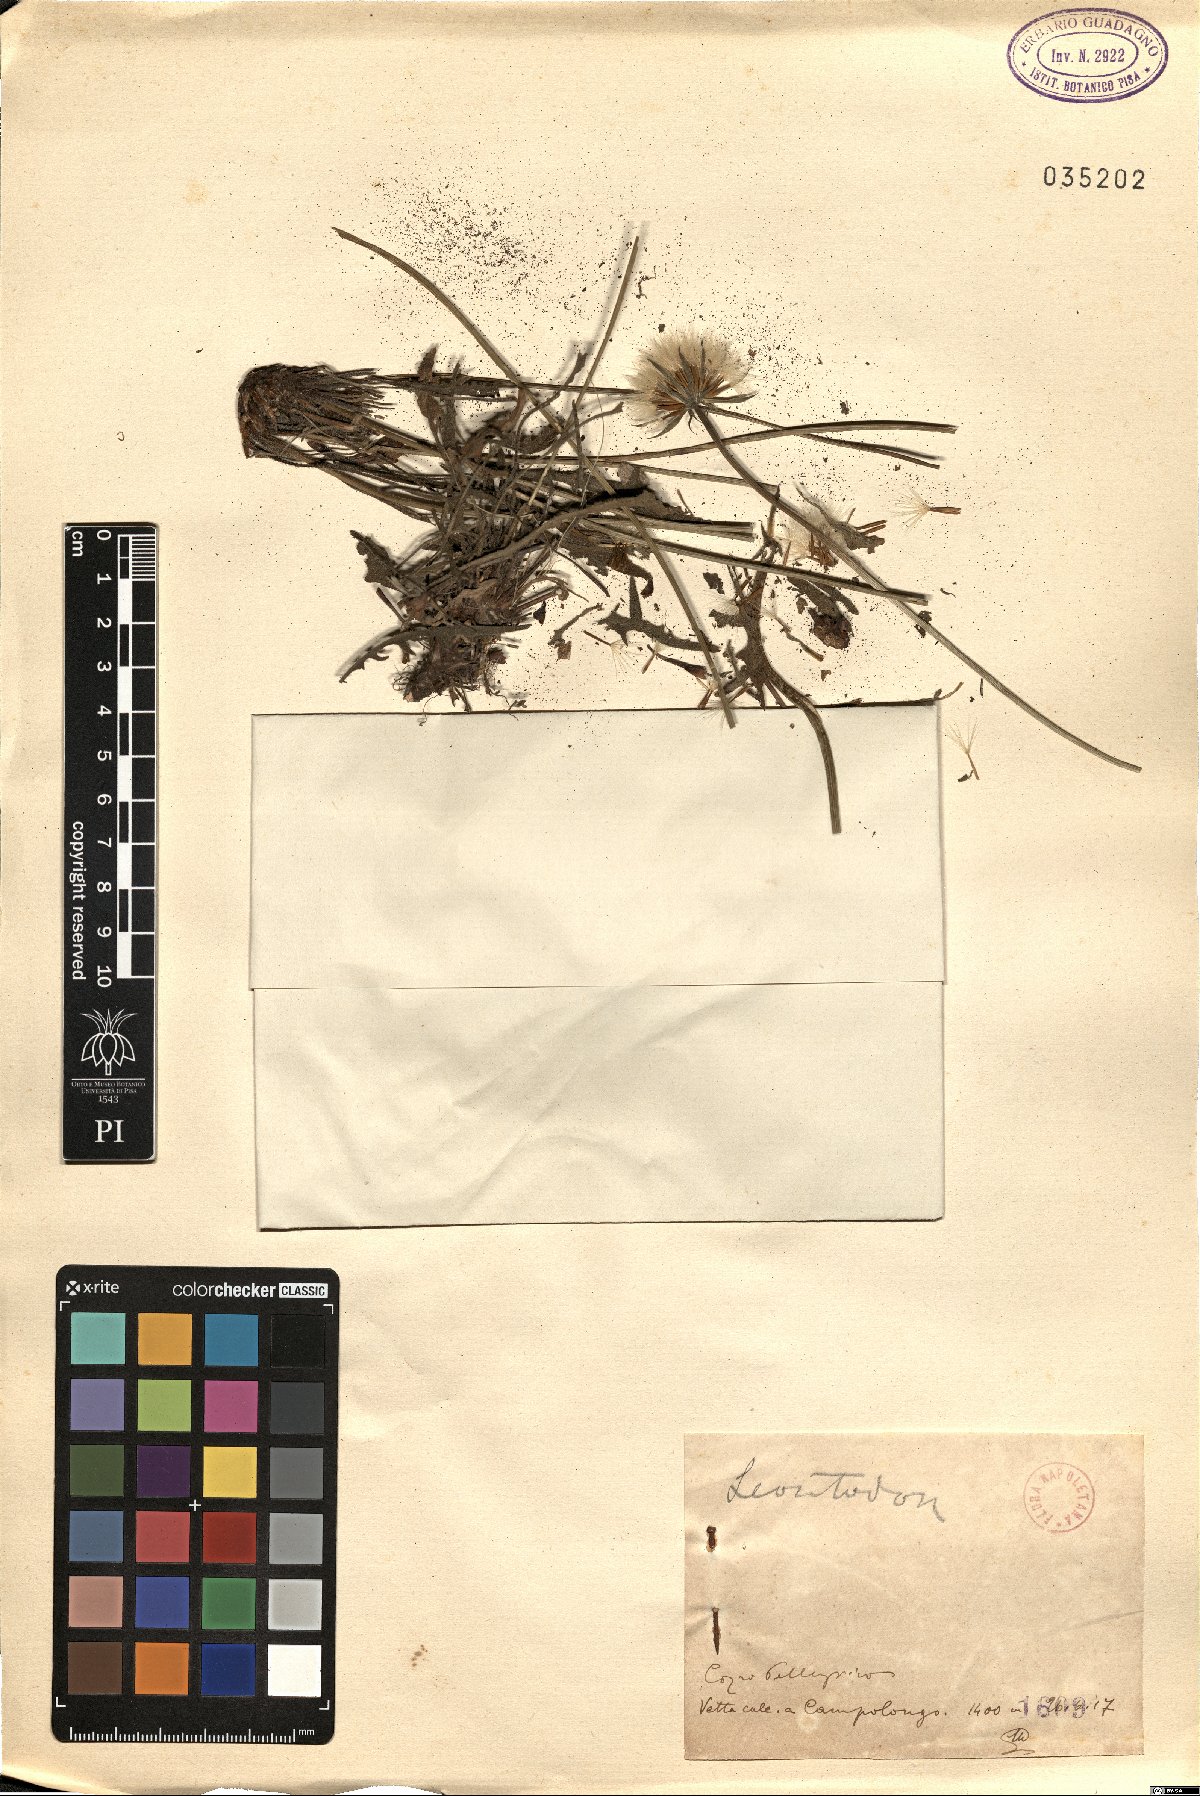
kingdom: Plantae
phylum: Tracheophyta
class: Magnoliopsida
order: Asterales
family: Asteraceae
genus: Leontodon
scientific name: Leontodon
